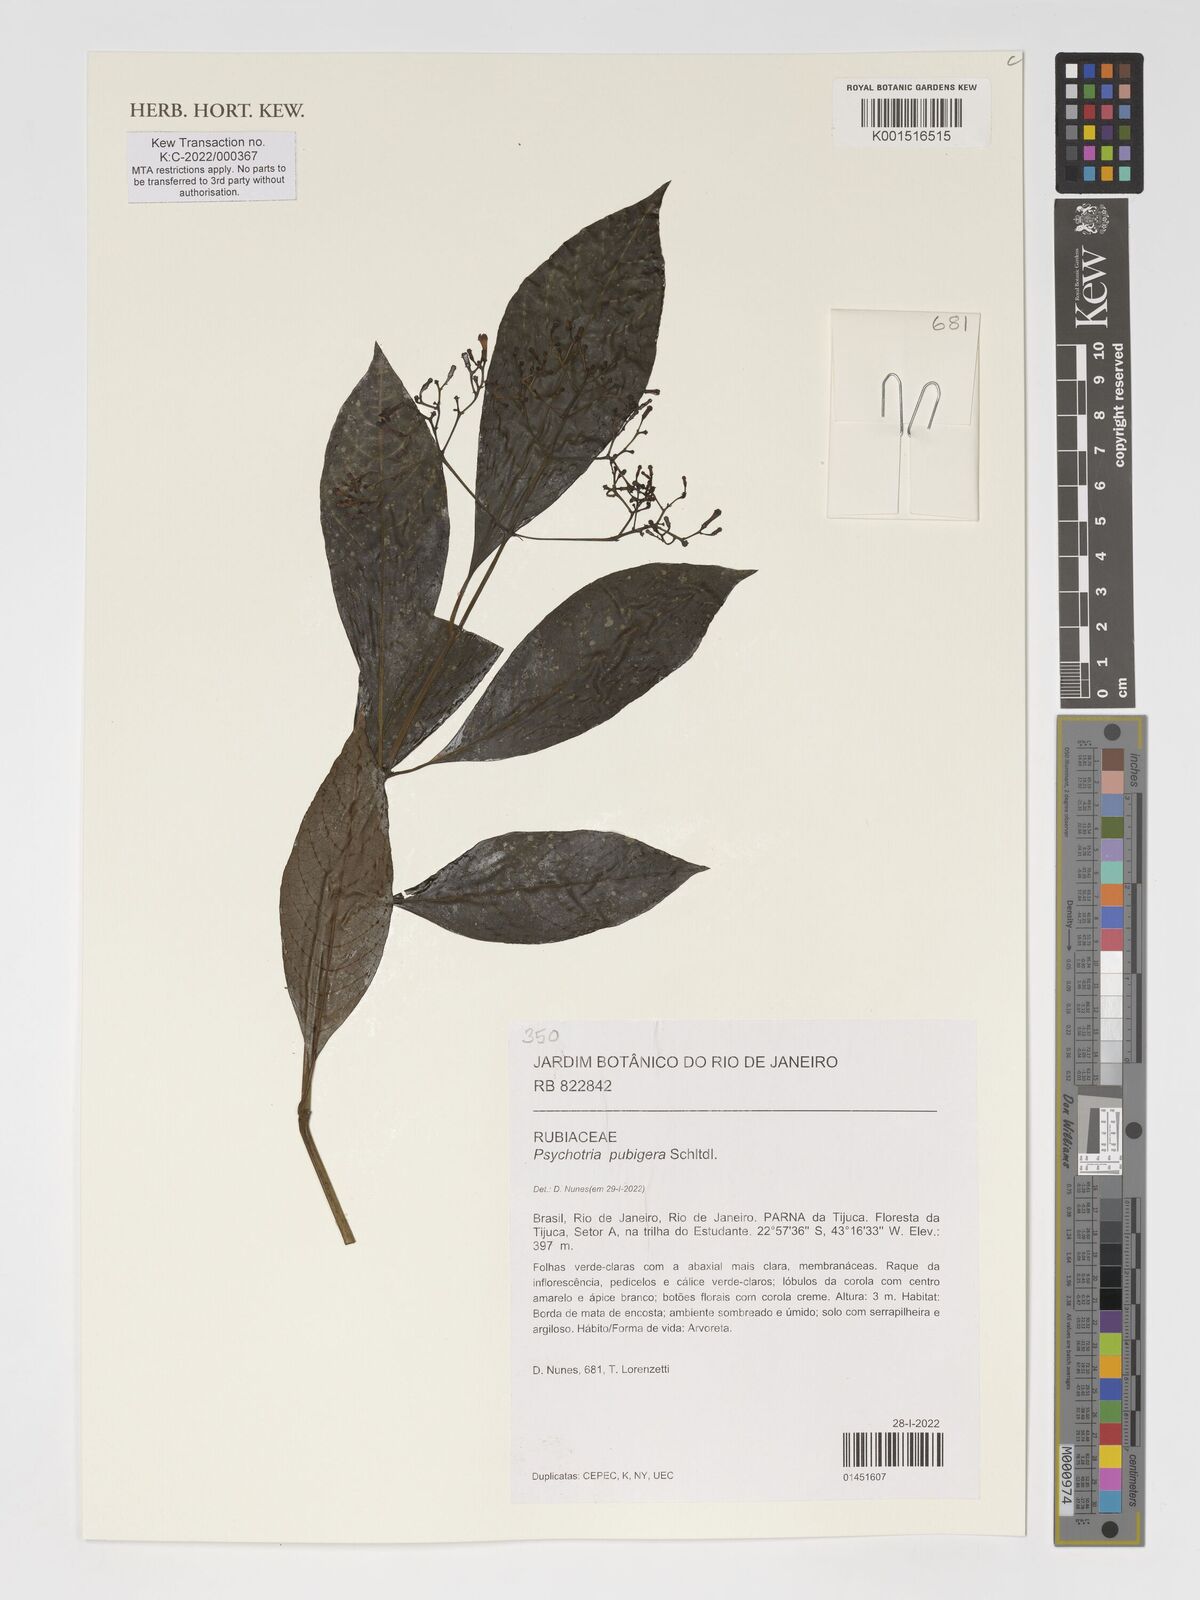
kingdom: Plantae
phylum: Tracheophyta
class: Magnoliopsida
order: Gentianales
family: Rubiaceae
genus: Psychotria
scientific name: Psychotria nemorosa
